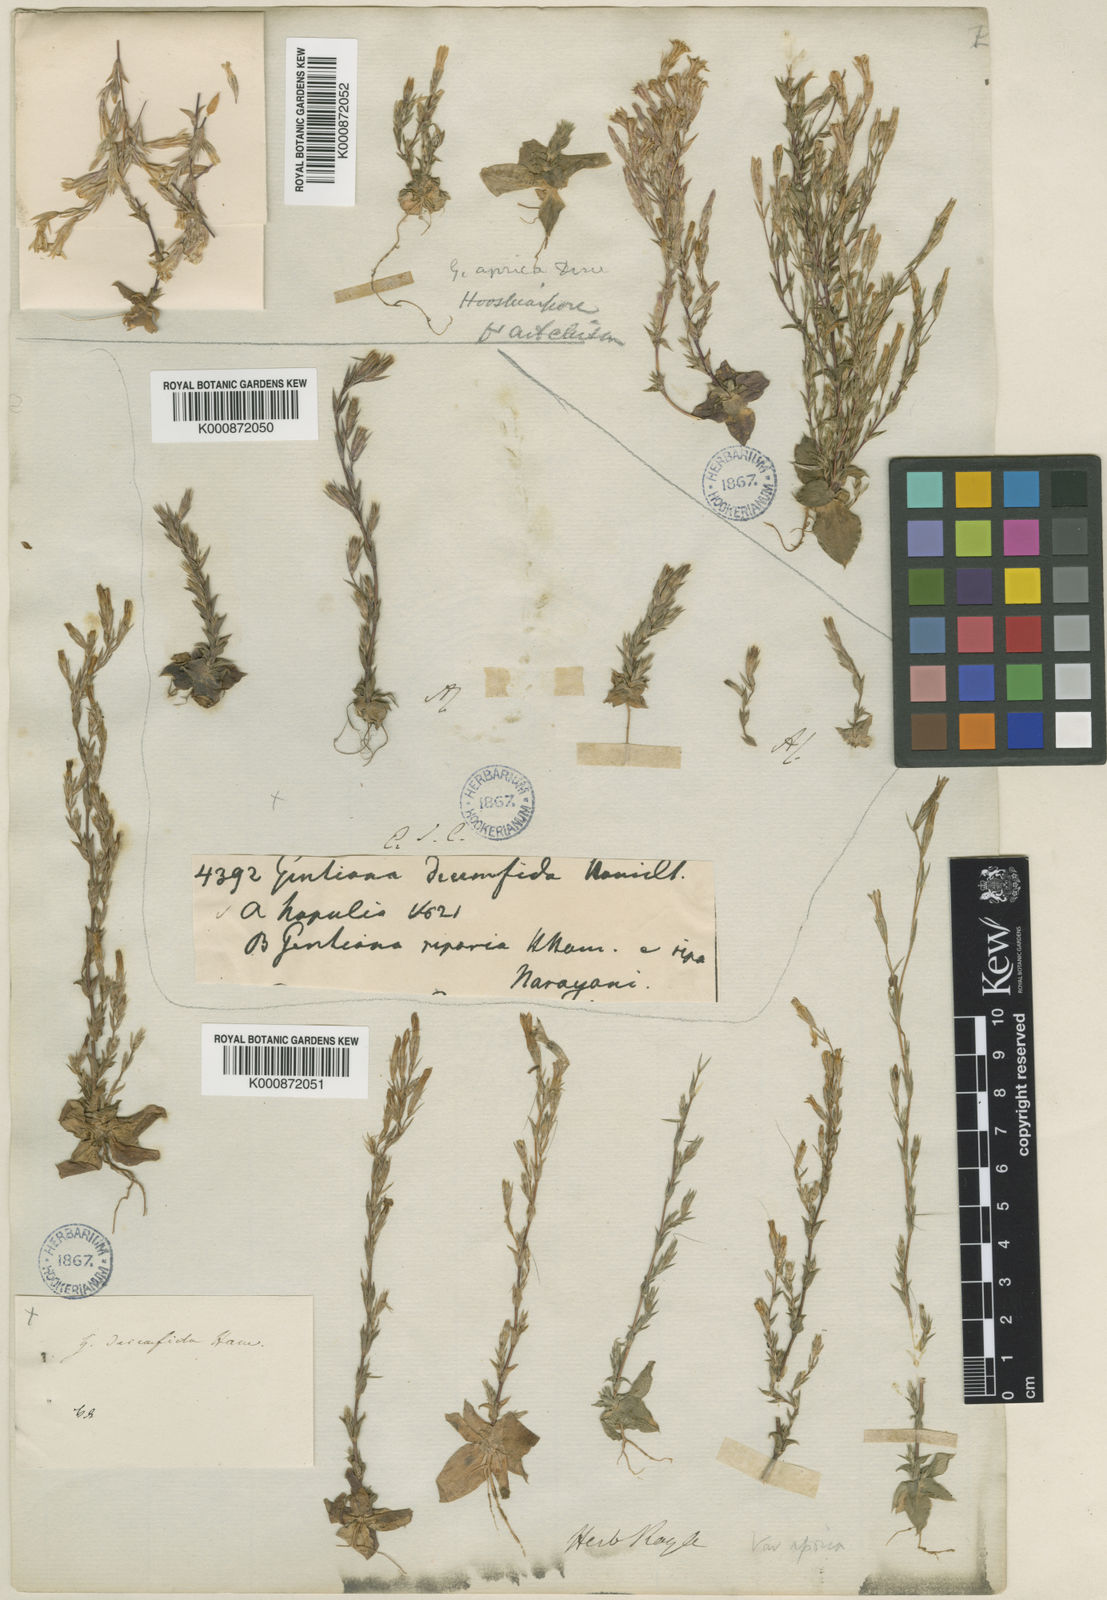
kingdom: Plantae
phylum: Tracheophyta
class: Magnoliopsida
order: Gentianales
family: Gentianaceae
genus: Gentiana
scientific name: Gentiana decemfida
